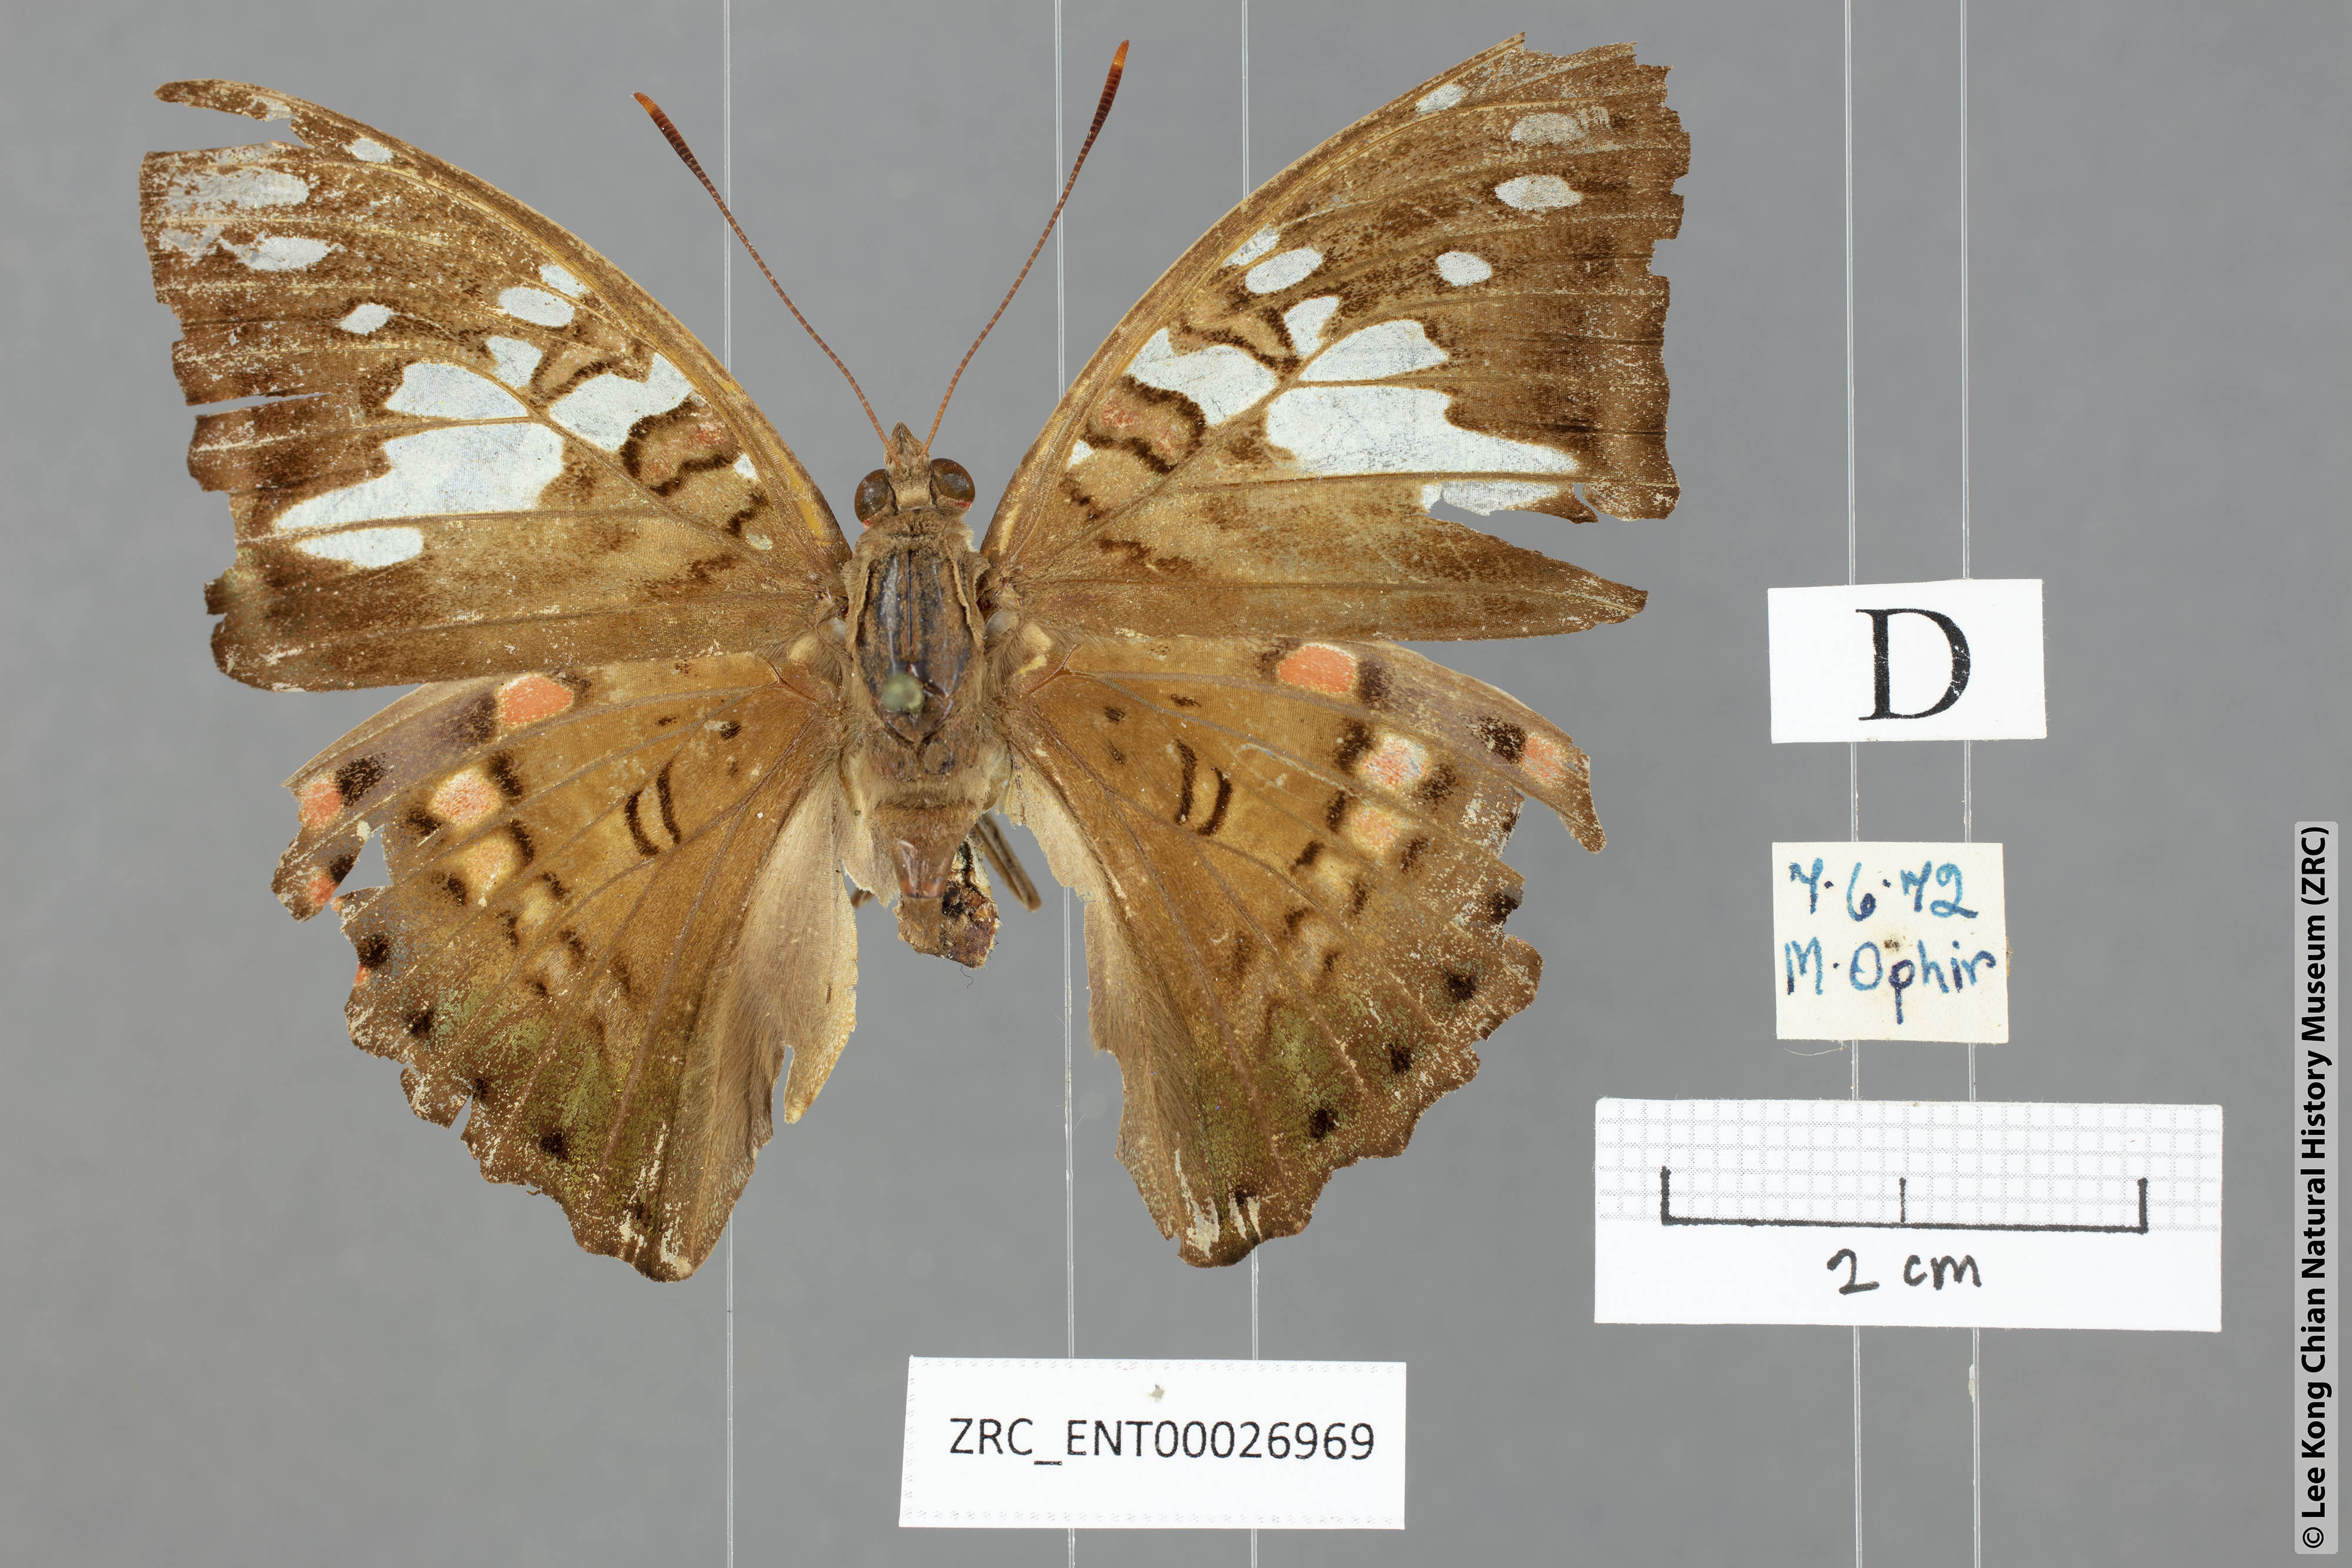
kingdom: Animalia
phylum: Arthropoda
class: Insecta
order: Lepidoptera
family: Nymphalidae
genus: Euthalia
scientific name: Euthalia malaccana
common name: Fruhstorfer's baron
